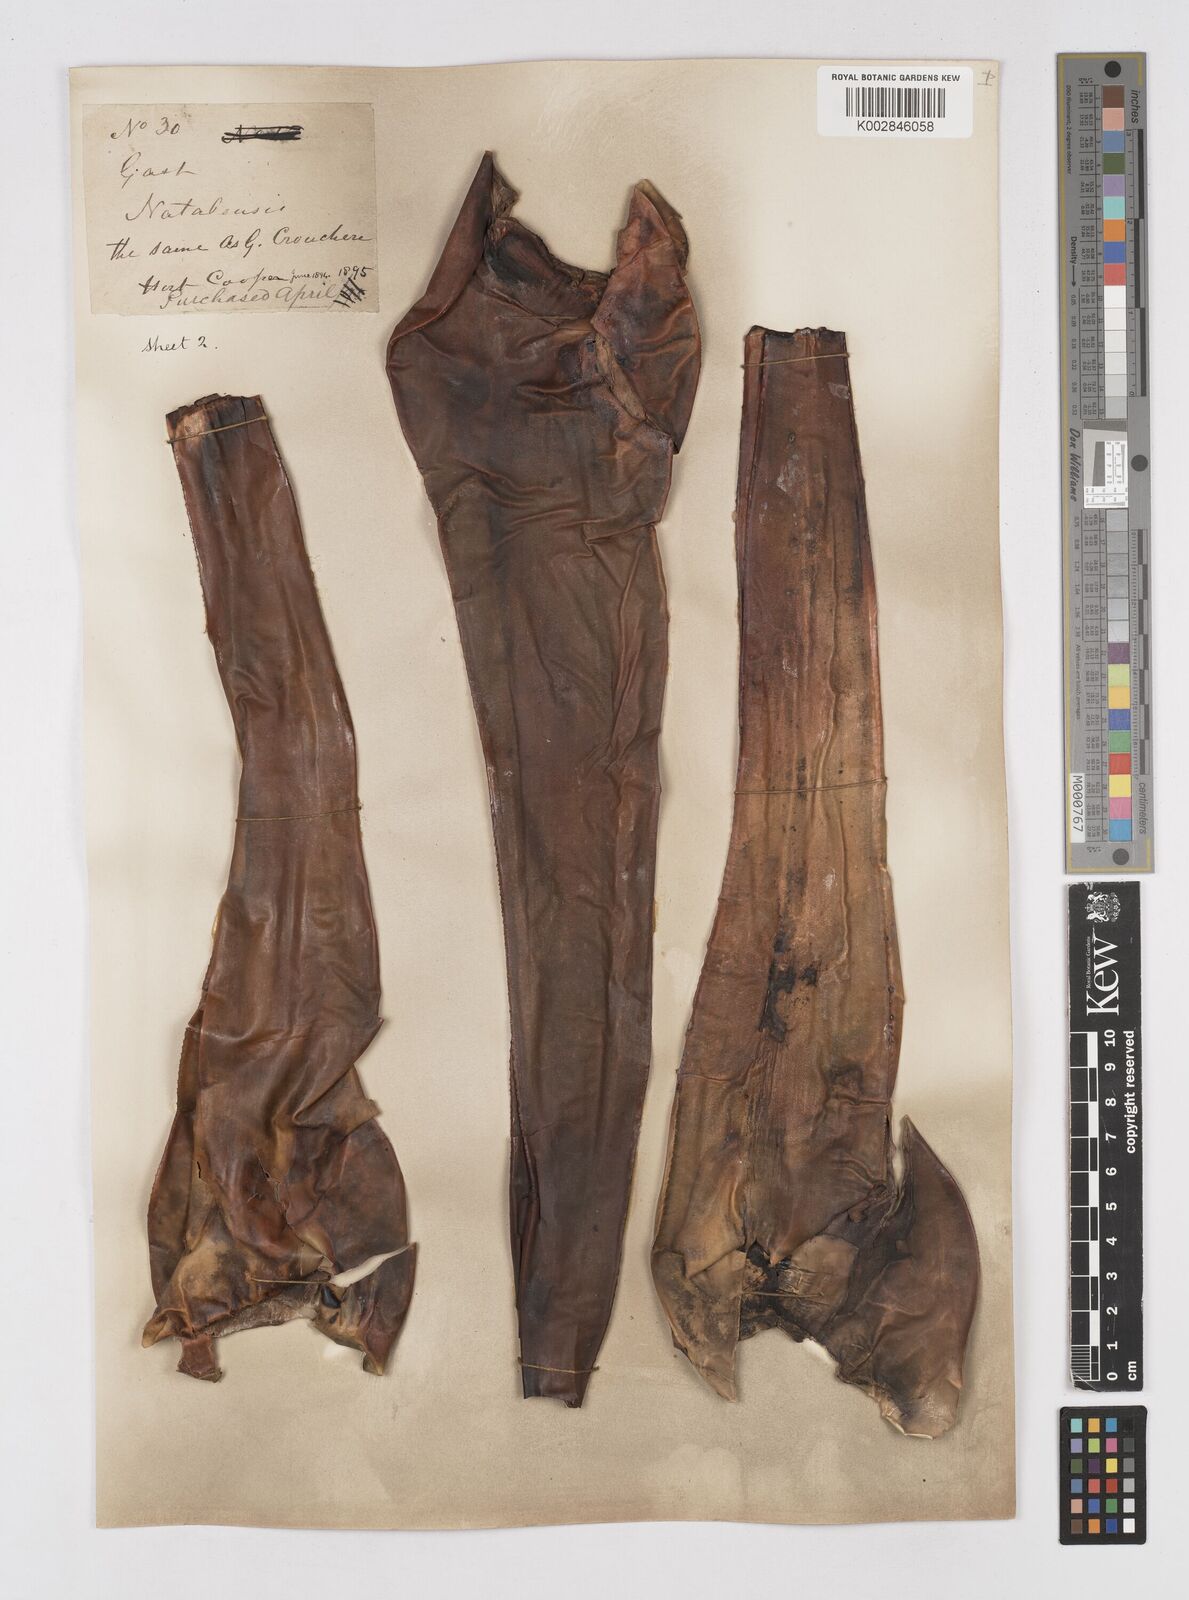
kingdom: Plantae
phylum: Tracheophyta
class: Liliopsida
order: Asparagales
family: Asphodelaceae
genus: Gasteria
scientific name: Gasteria croucheri
